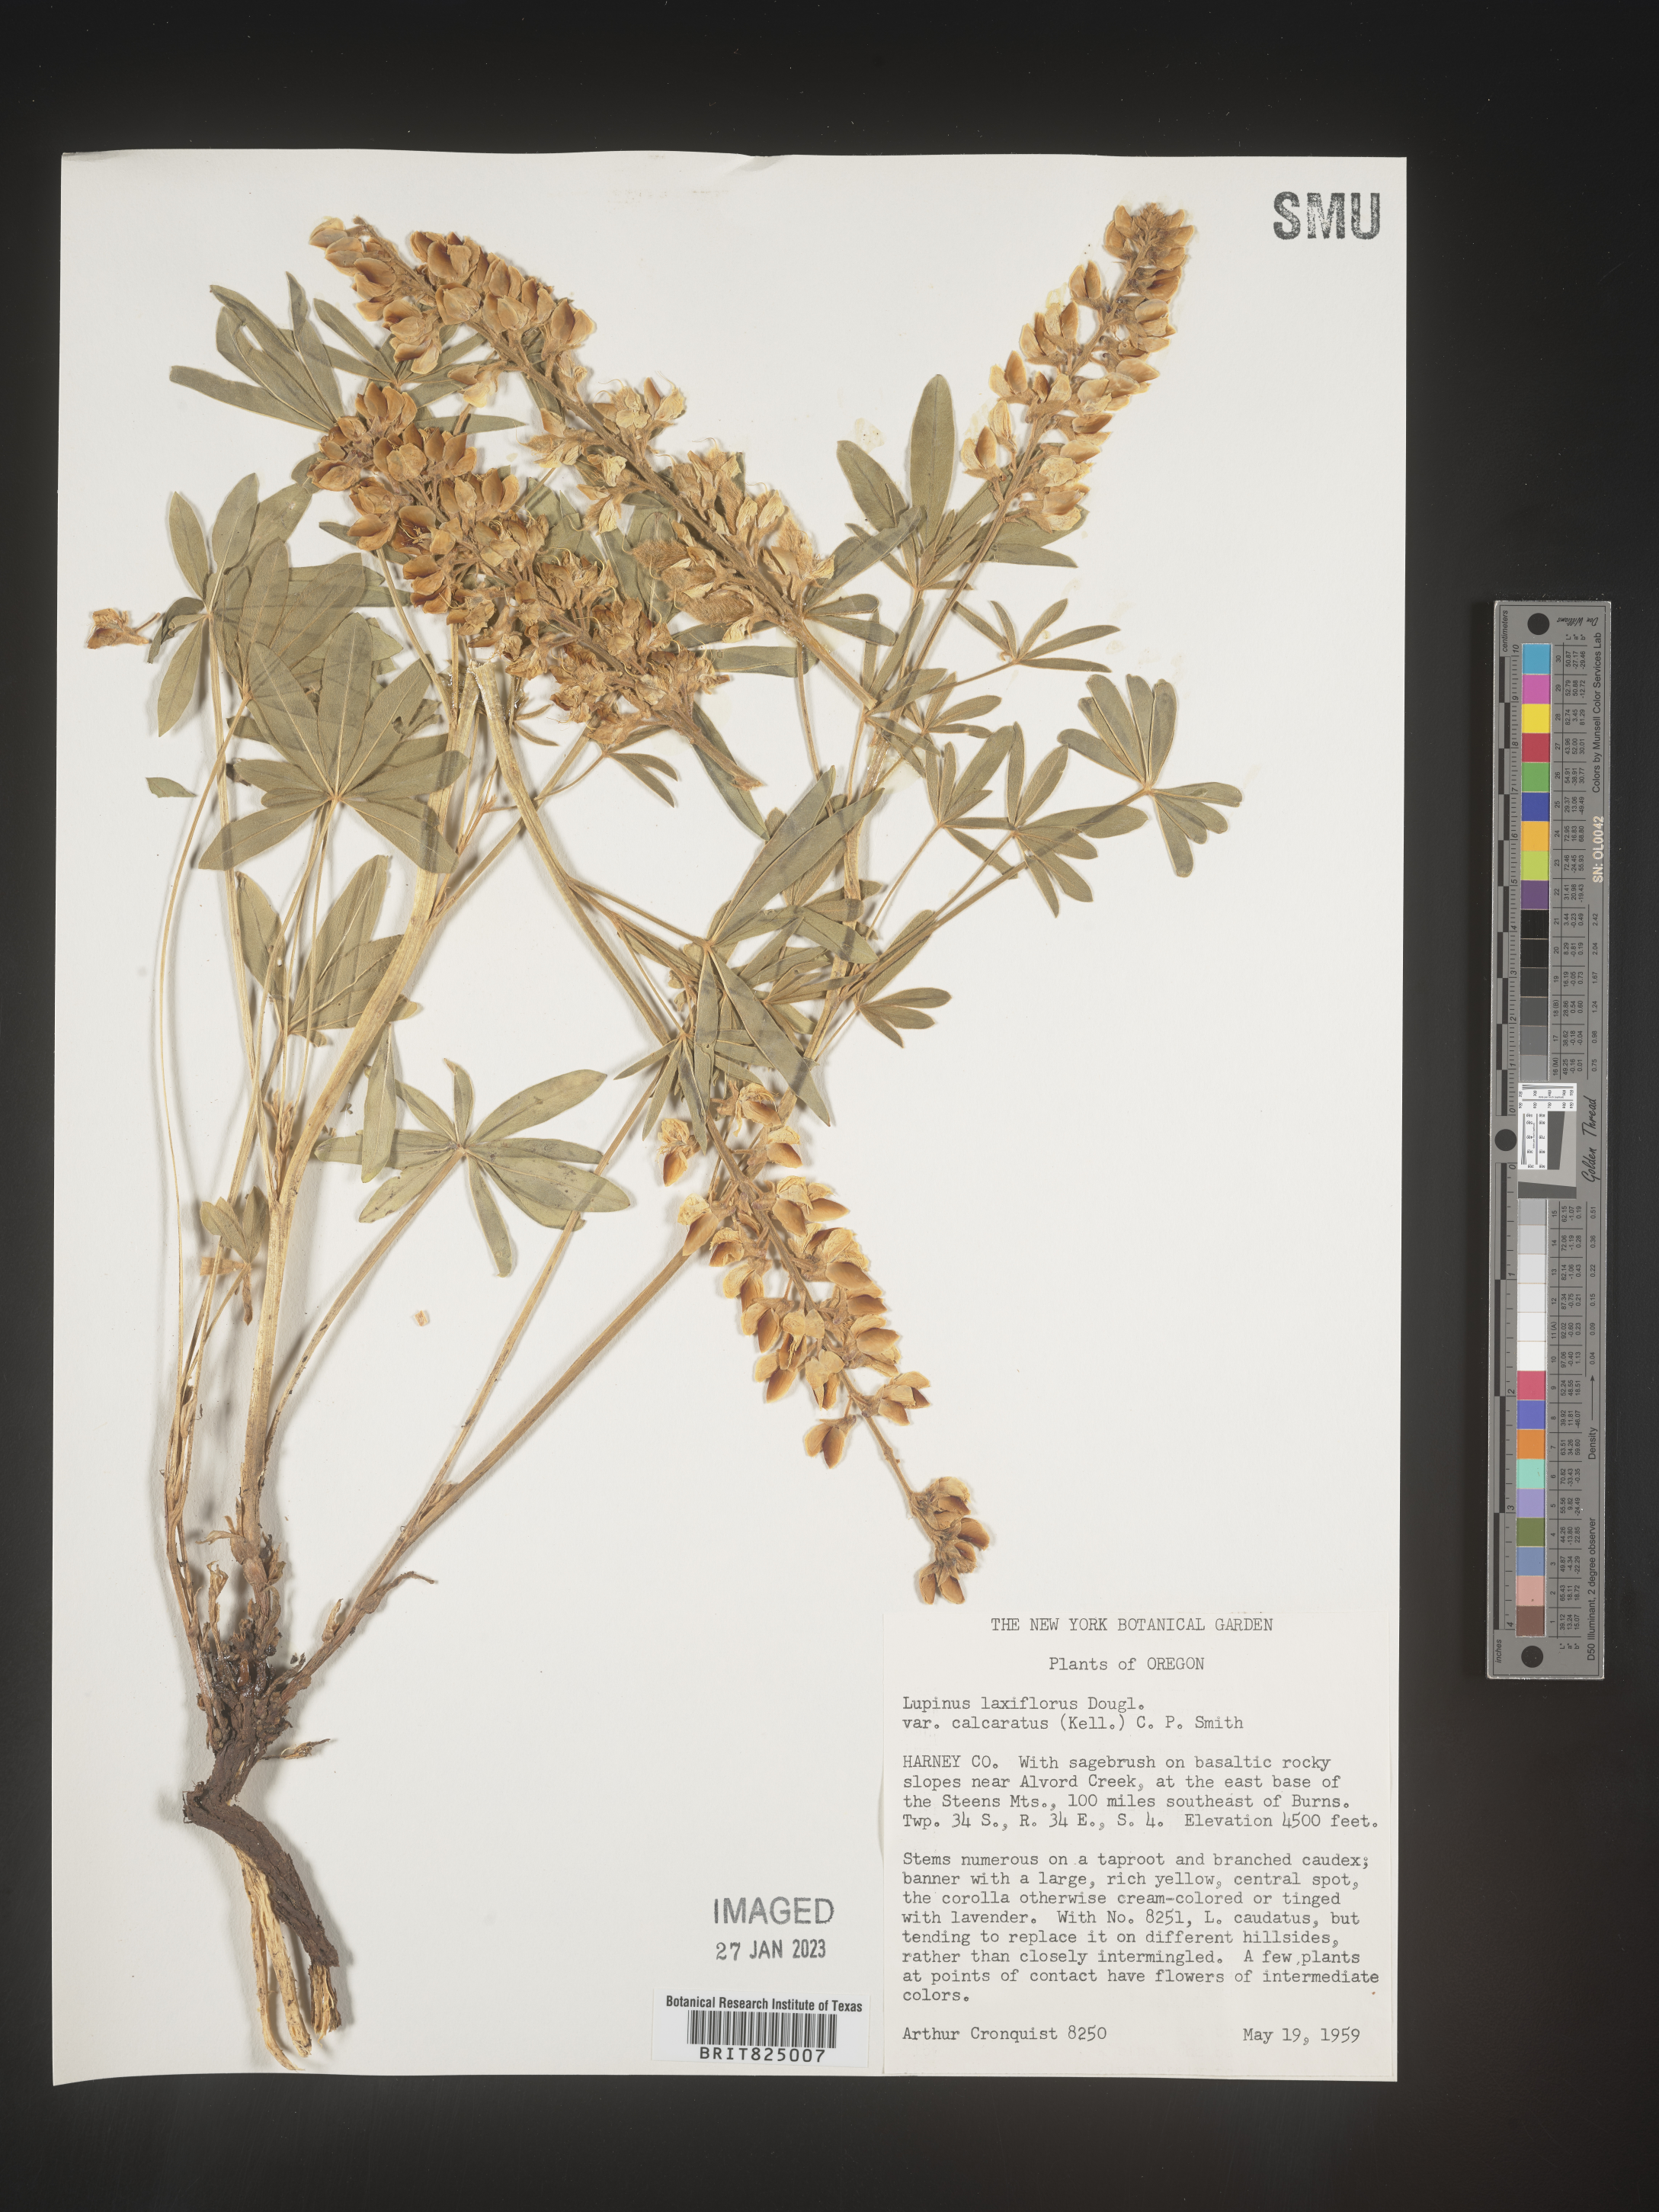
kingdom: Plantae
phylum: Tracheophyta
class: Magnoliopsida
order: Fabales
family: Fabaceae
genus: Lupinus
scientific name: Lupinus
